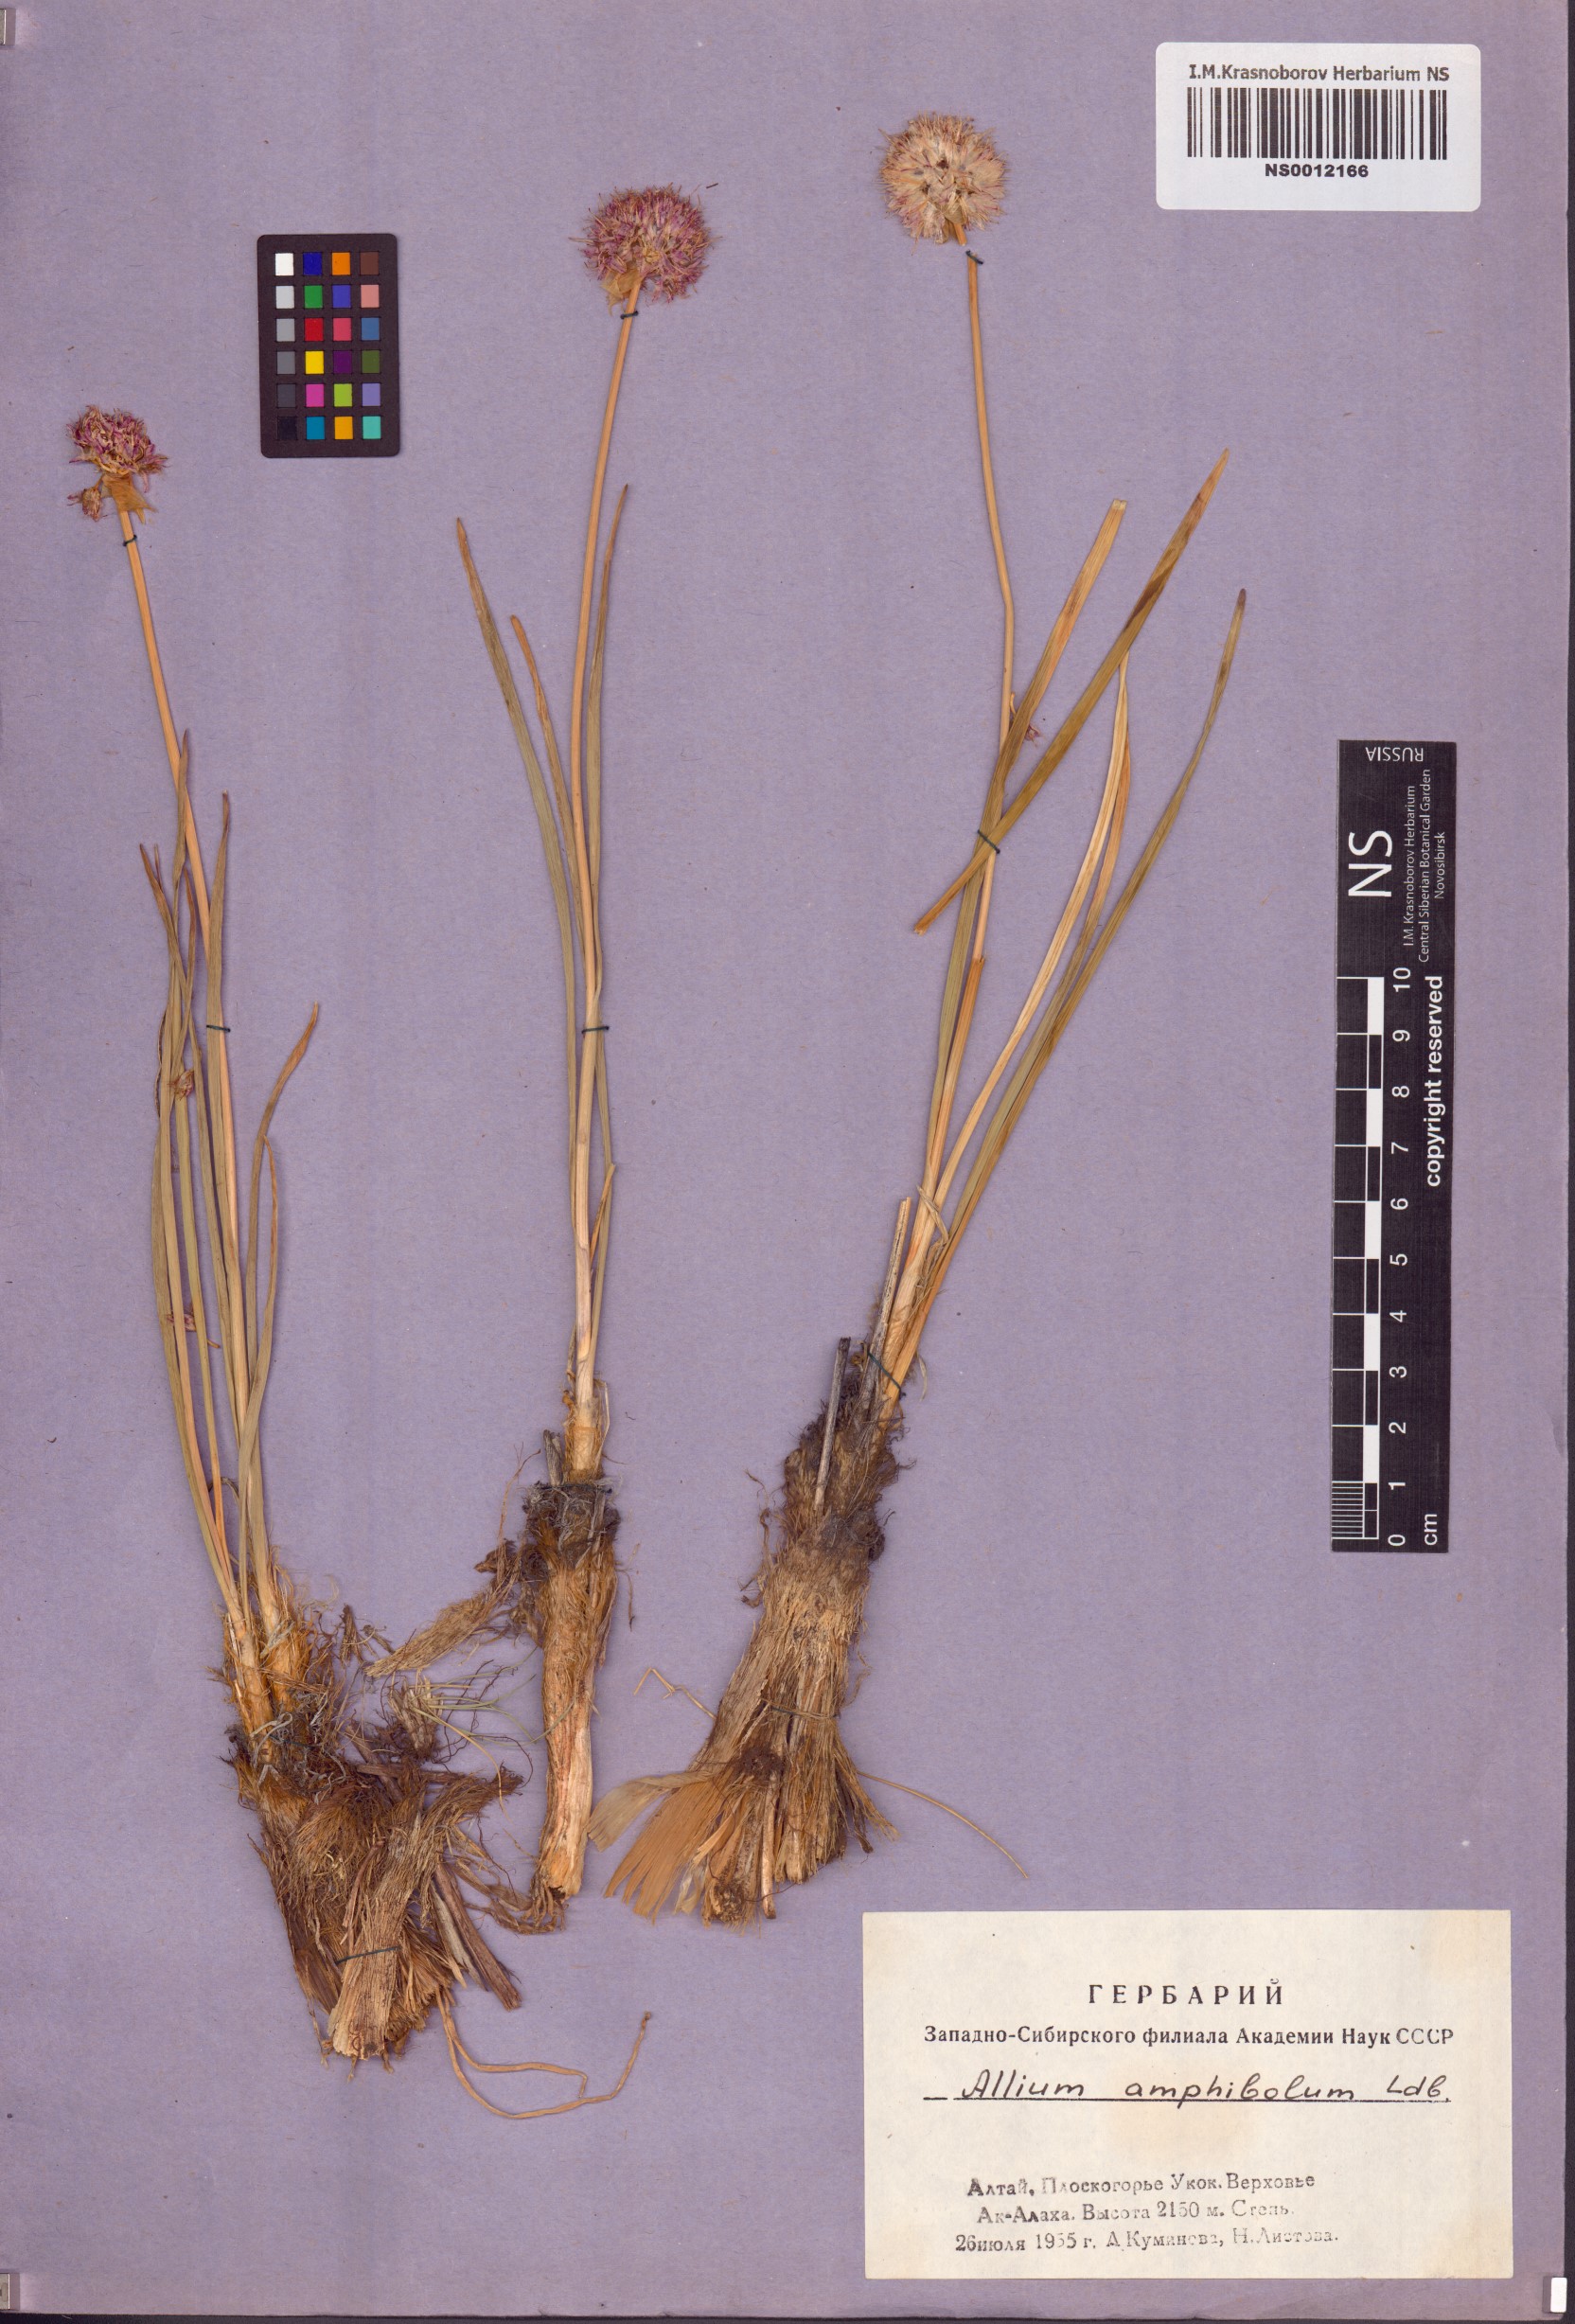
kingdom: Plantae
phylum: Tracheophyta
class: Liliopsida
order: Asparagales
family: Amaryllidaceae
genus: Allium
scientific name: Allium amphibolum
